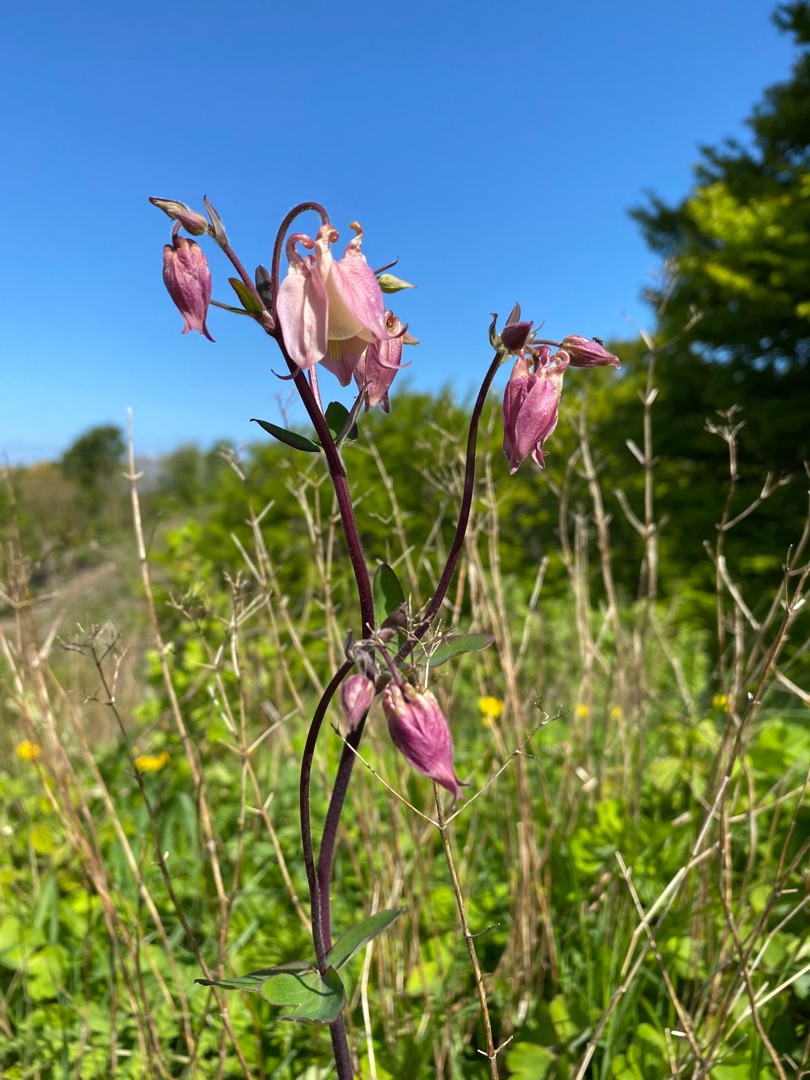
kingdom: Plantae
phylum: Tracheophyta
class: Magnoliopsida
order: Ranunculales
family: Ranunculaceae
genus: Aquilegia
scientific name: Aquilegia vulgaris
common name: Akeleje
